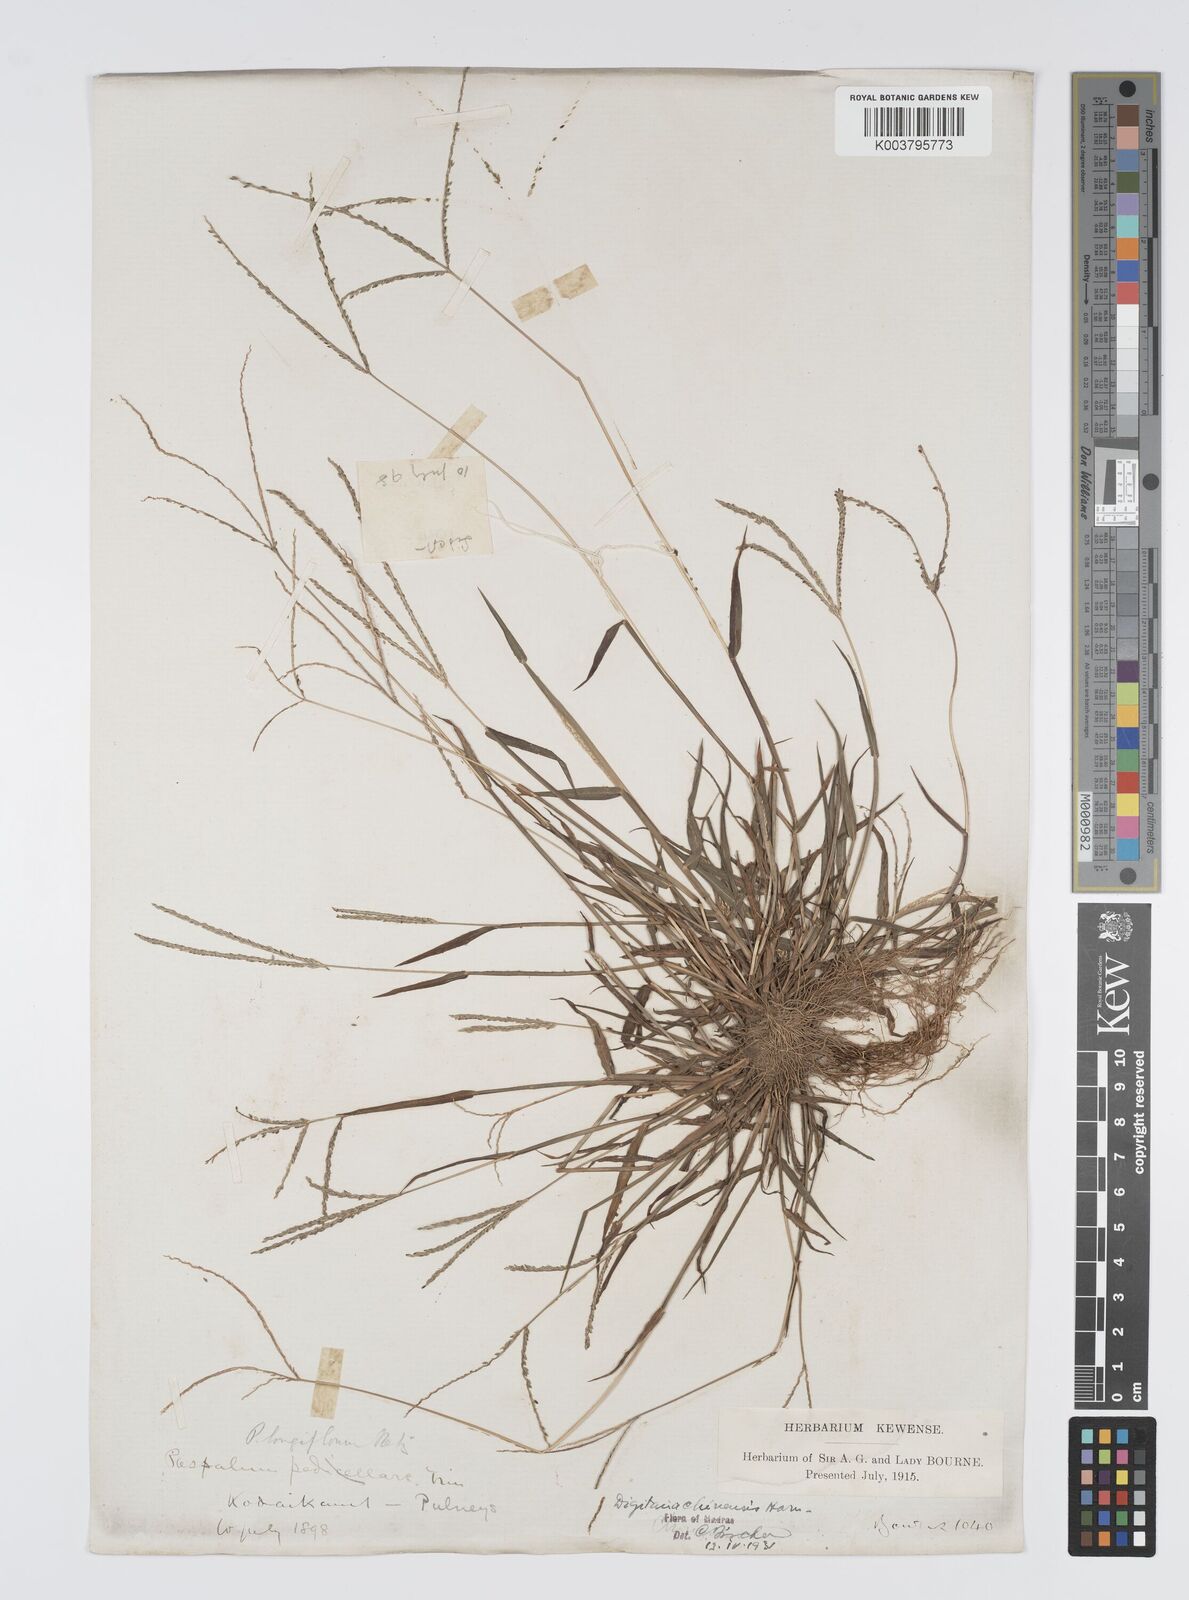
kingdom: Plantae
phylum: Tracheophyta
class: Liliopsida
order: Poales
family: Poaceae
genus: Digitaria
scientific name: Digitaria violascens
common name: Violet crabgrass
